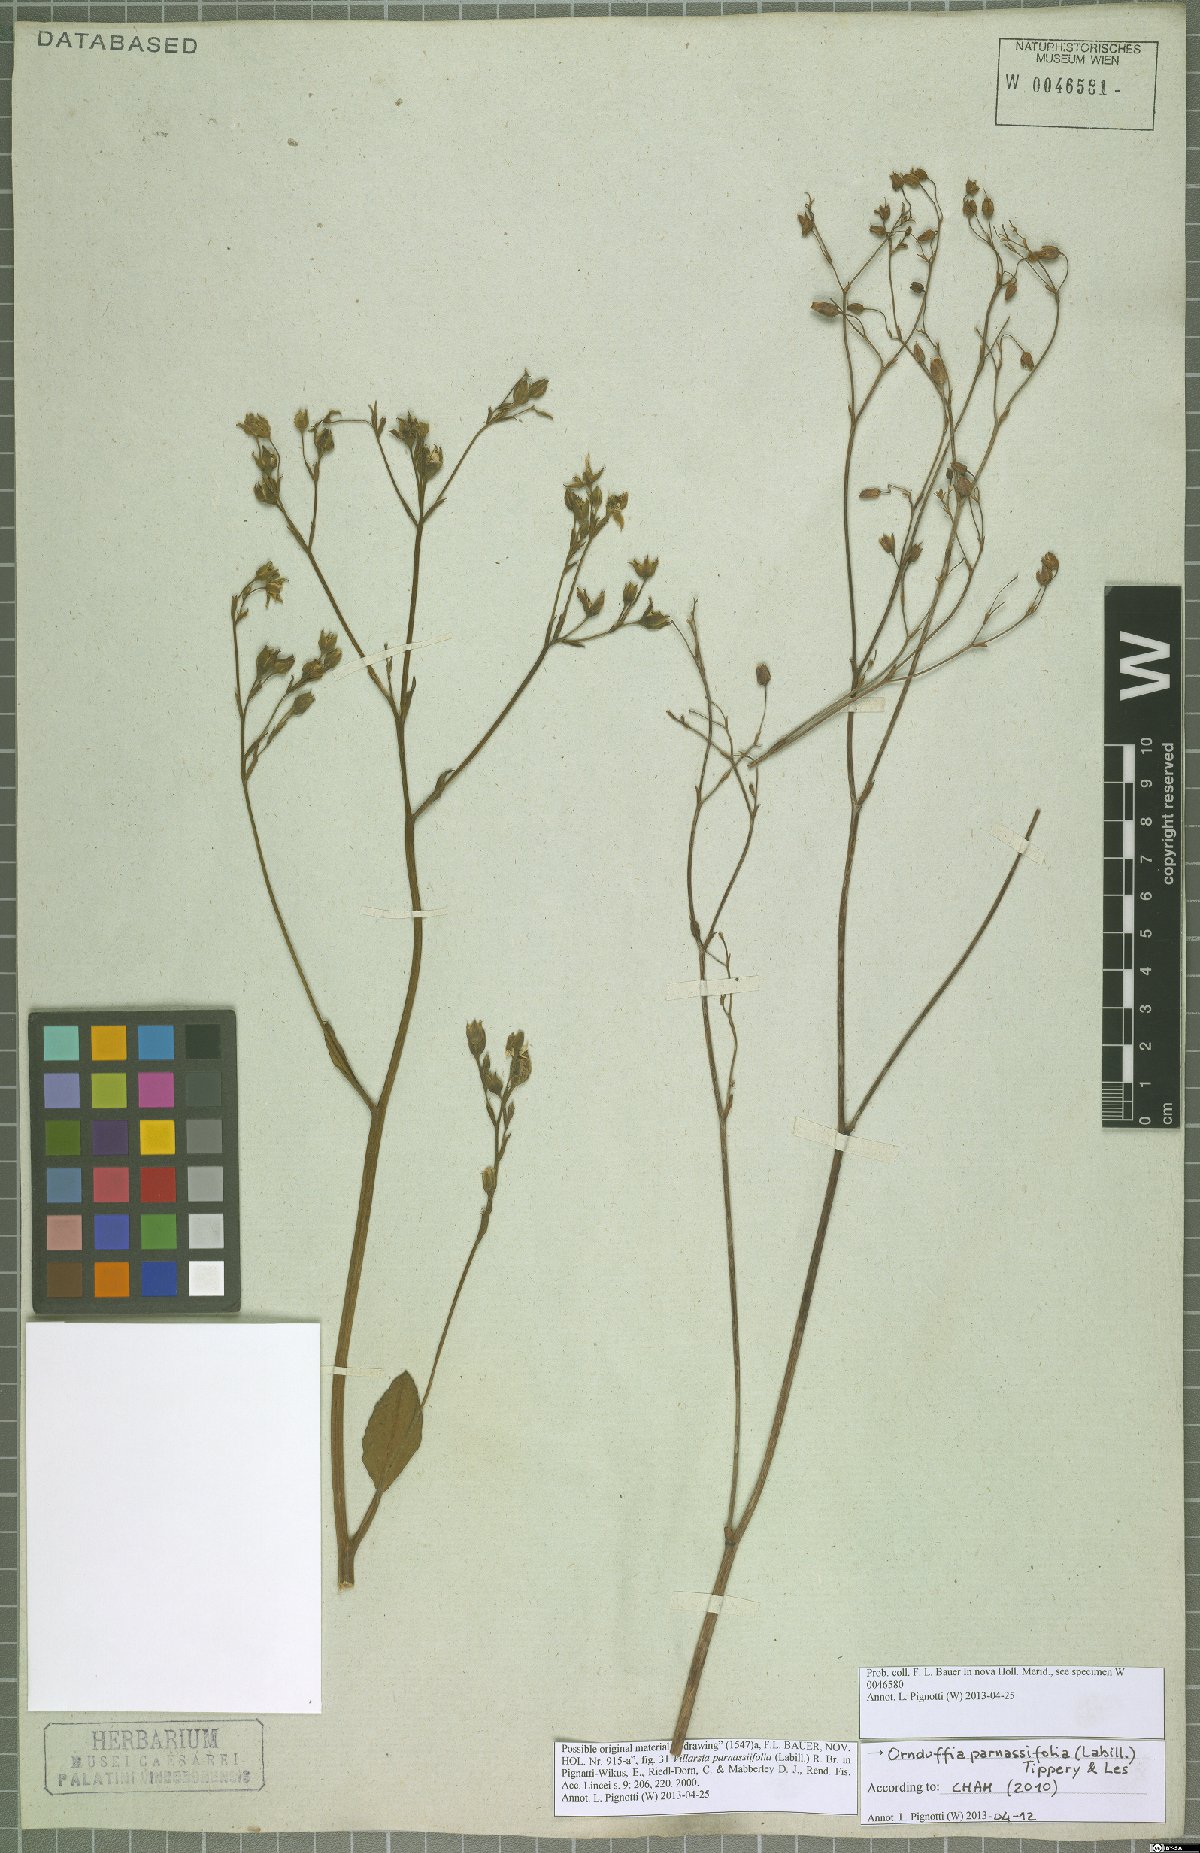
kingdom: Plantae
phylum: Tracheophyta
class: Magnoliopsida
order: Asterales
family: Menyanthaceae
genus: Ornduffia
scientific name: Ornduffia parnassifolia
